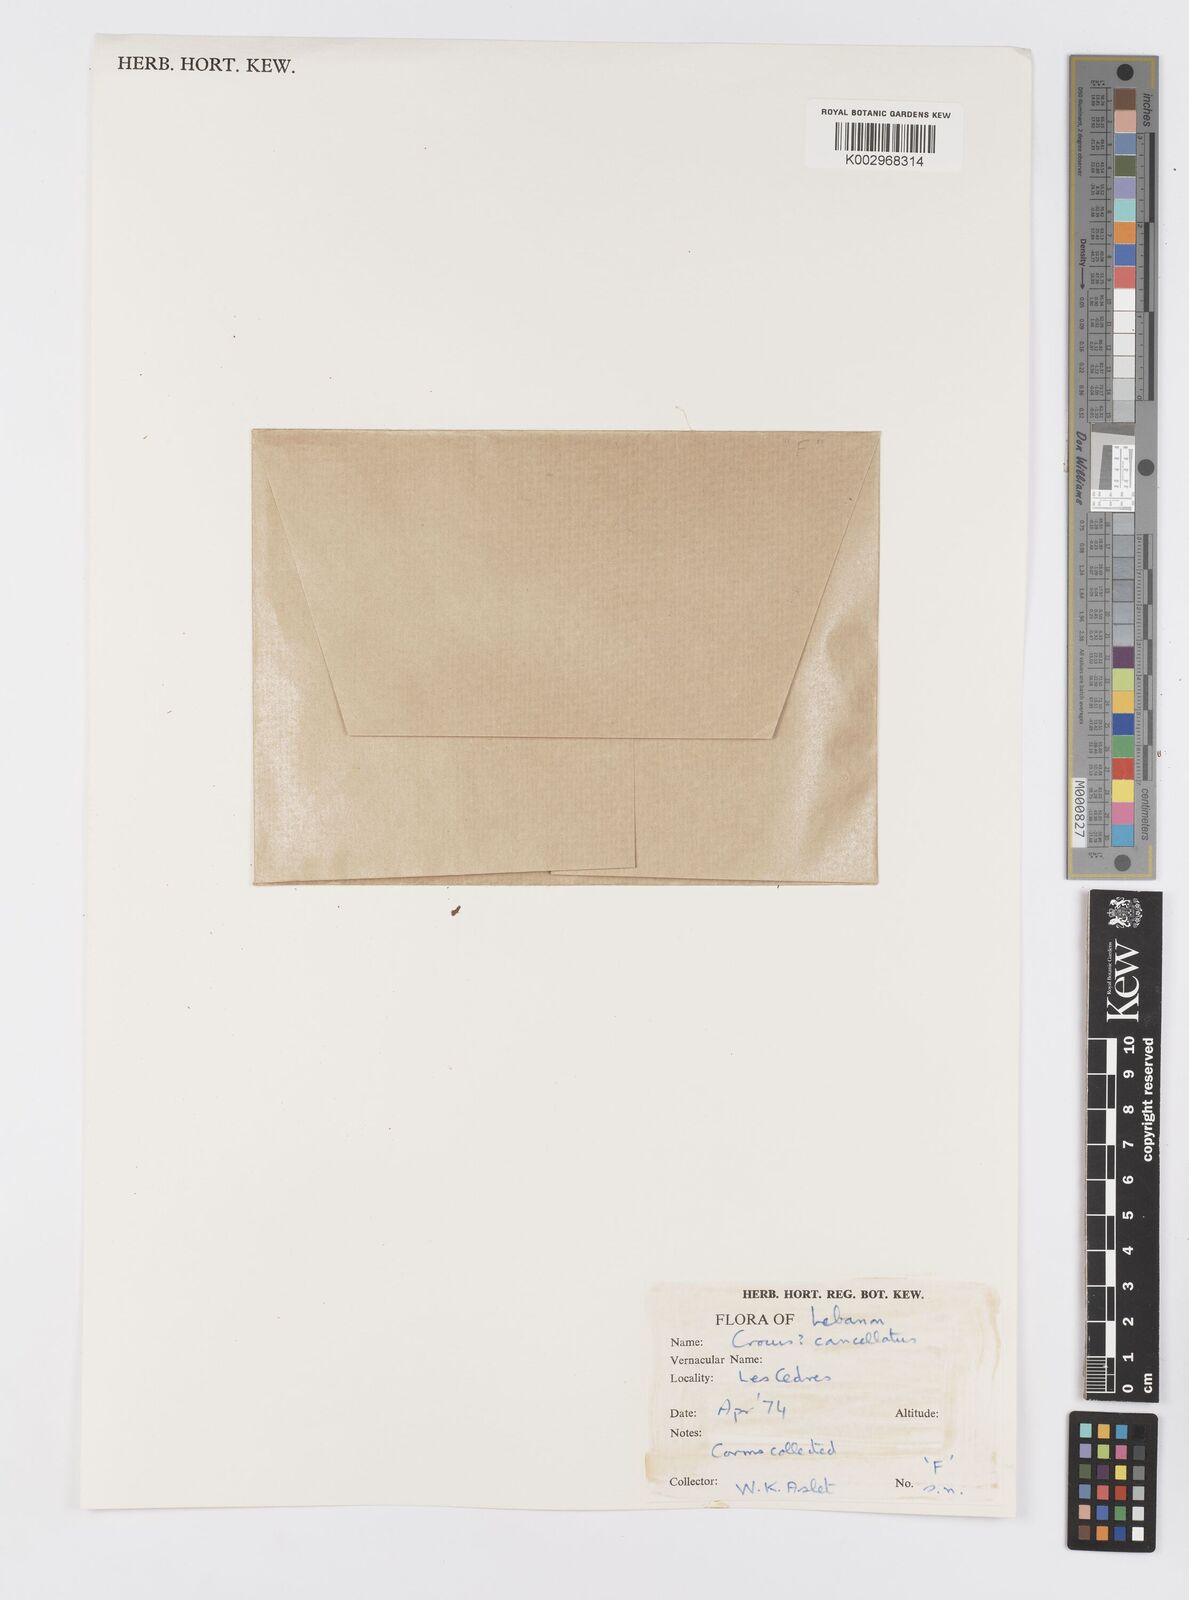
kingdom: Plantae
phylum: Tracheophyta
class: Liliopsida
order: Asparagales
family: Iridaceae
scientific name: Iridaceae
